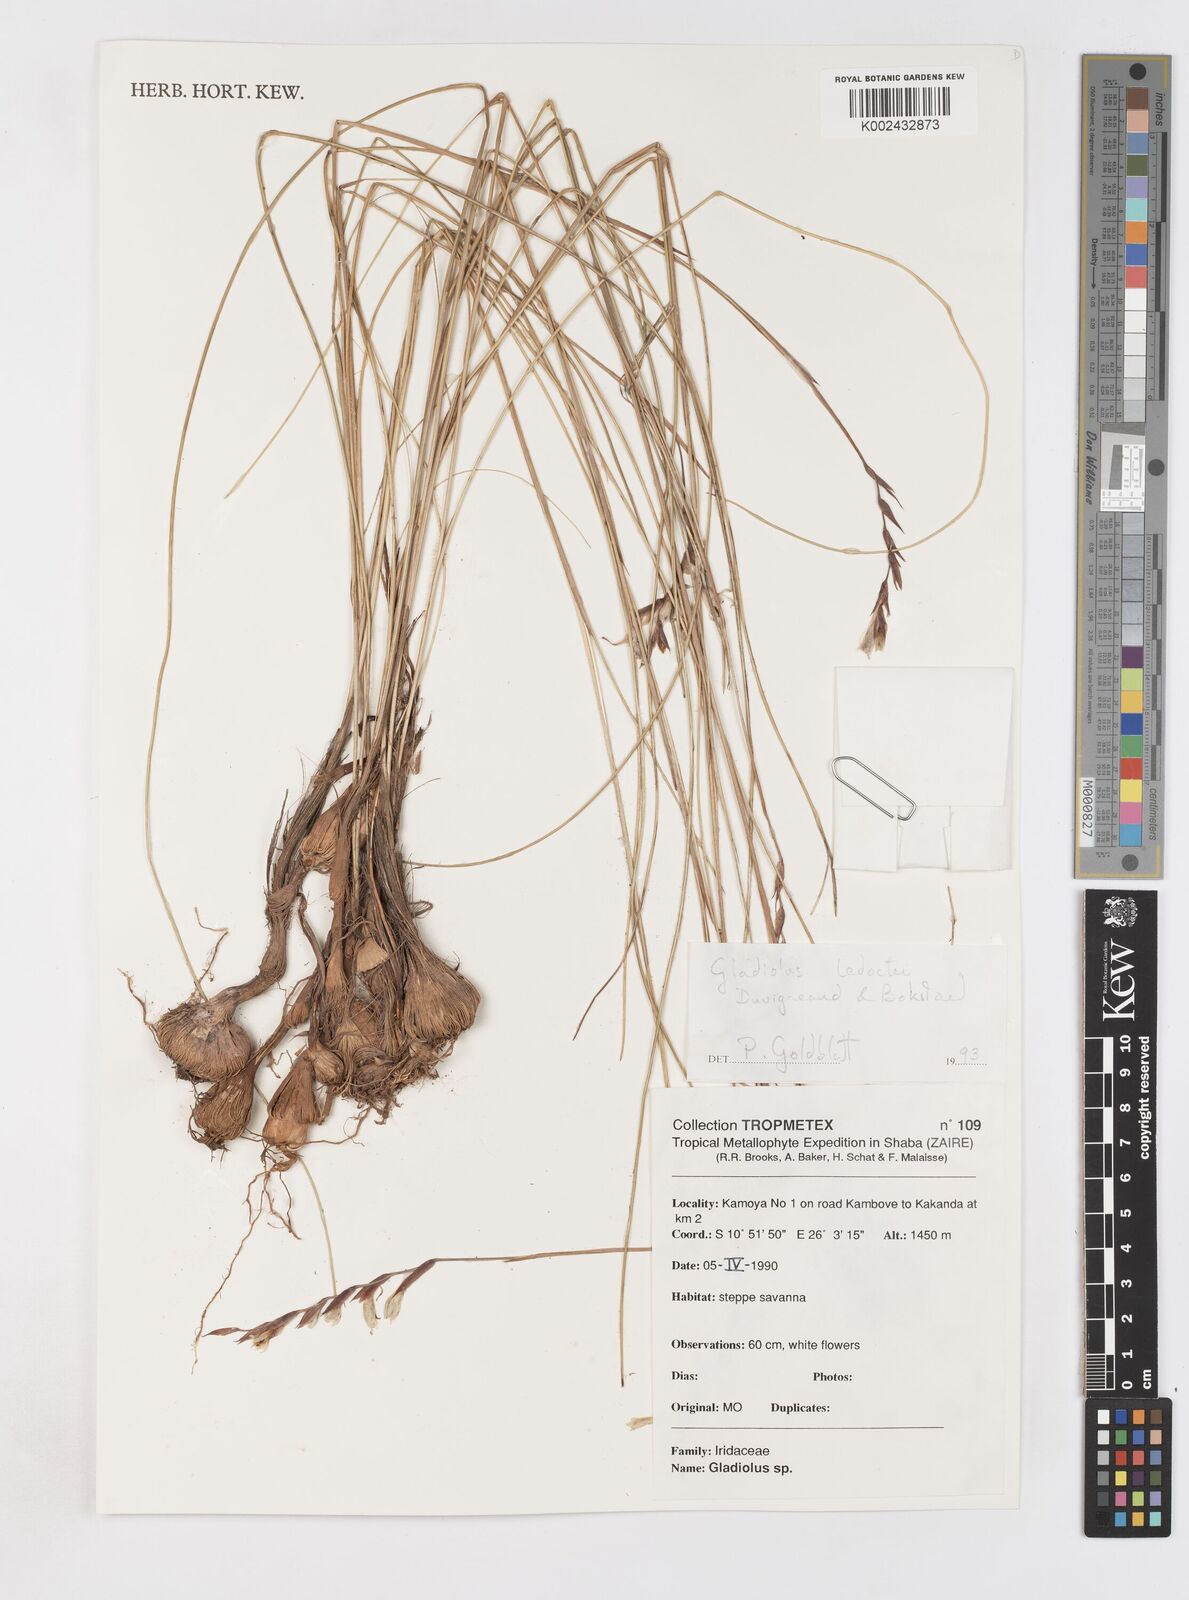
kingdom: Plantae
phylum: Tracheophyta
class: Liliopsida
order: Asparagales
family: Iridaceae
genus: Gladiolus
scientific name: Gladiolus ledoctei
